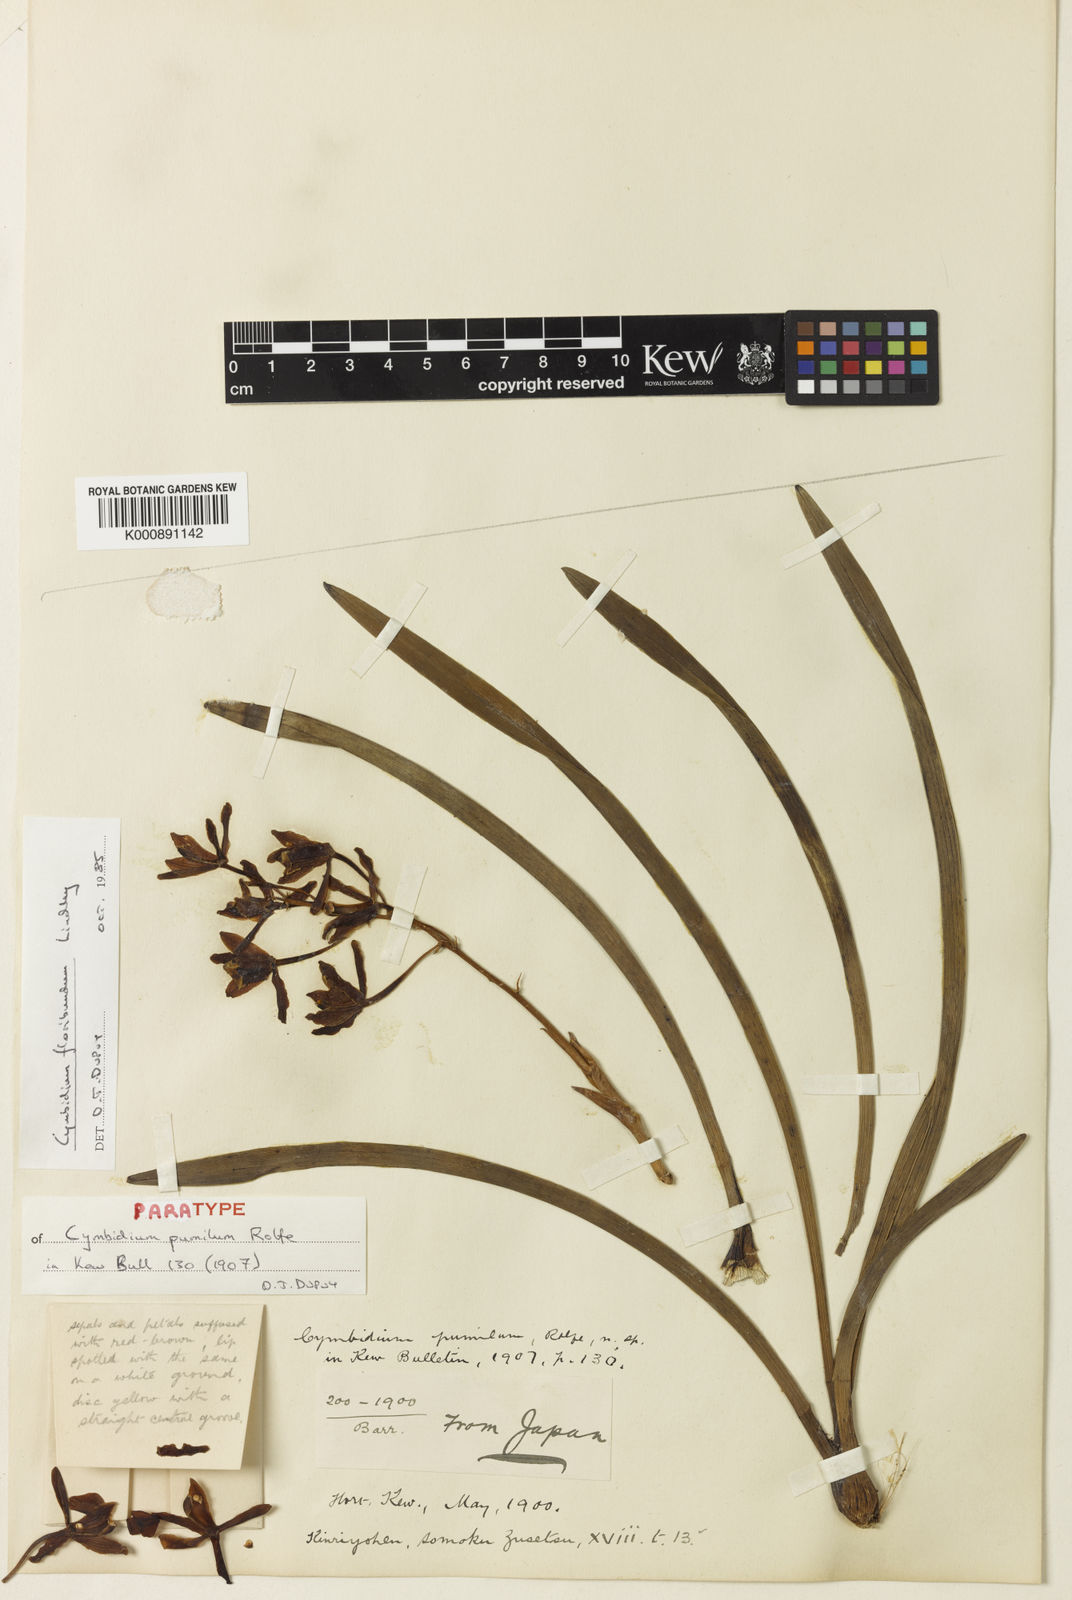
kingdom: Plantae
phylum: Tracheophyta
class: Liliopsida
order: Asparagales
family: Orchidaceae
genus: Cymbidium
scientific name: Cymbidium floribundum
